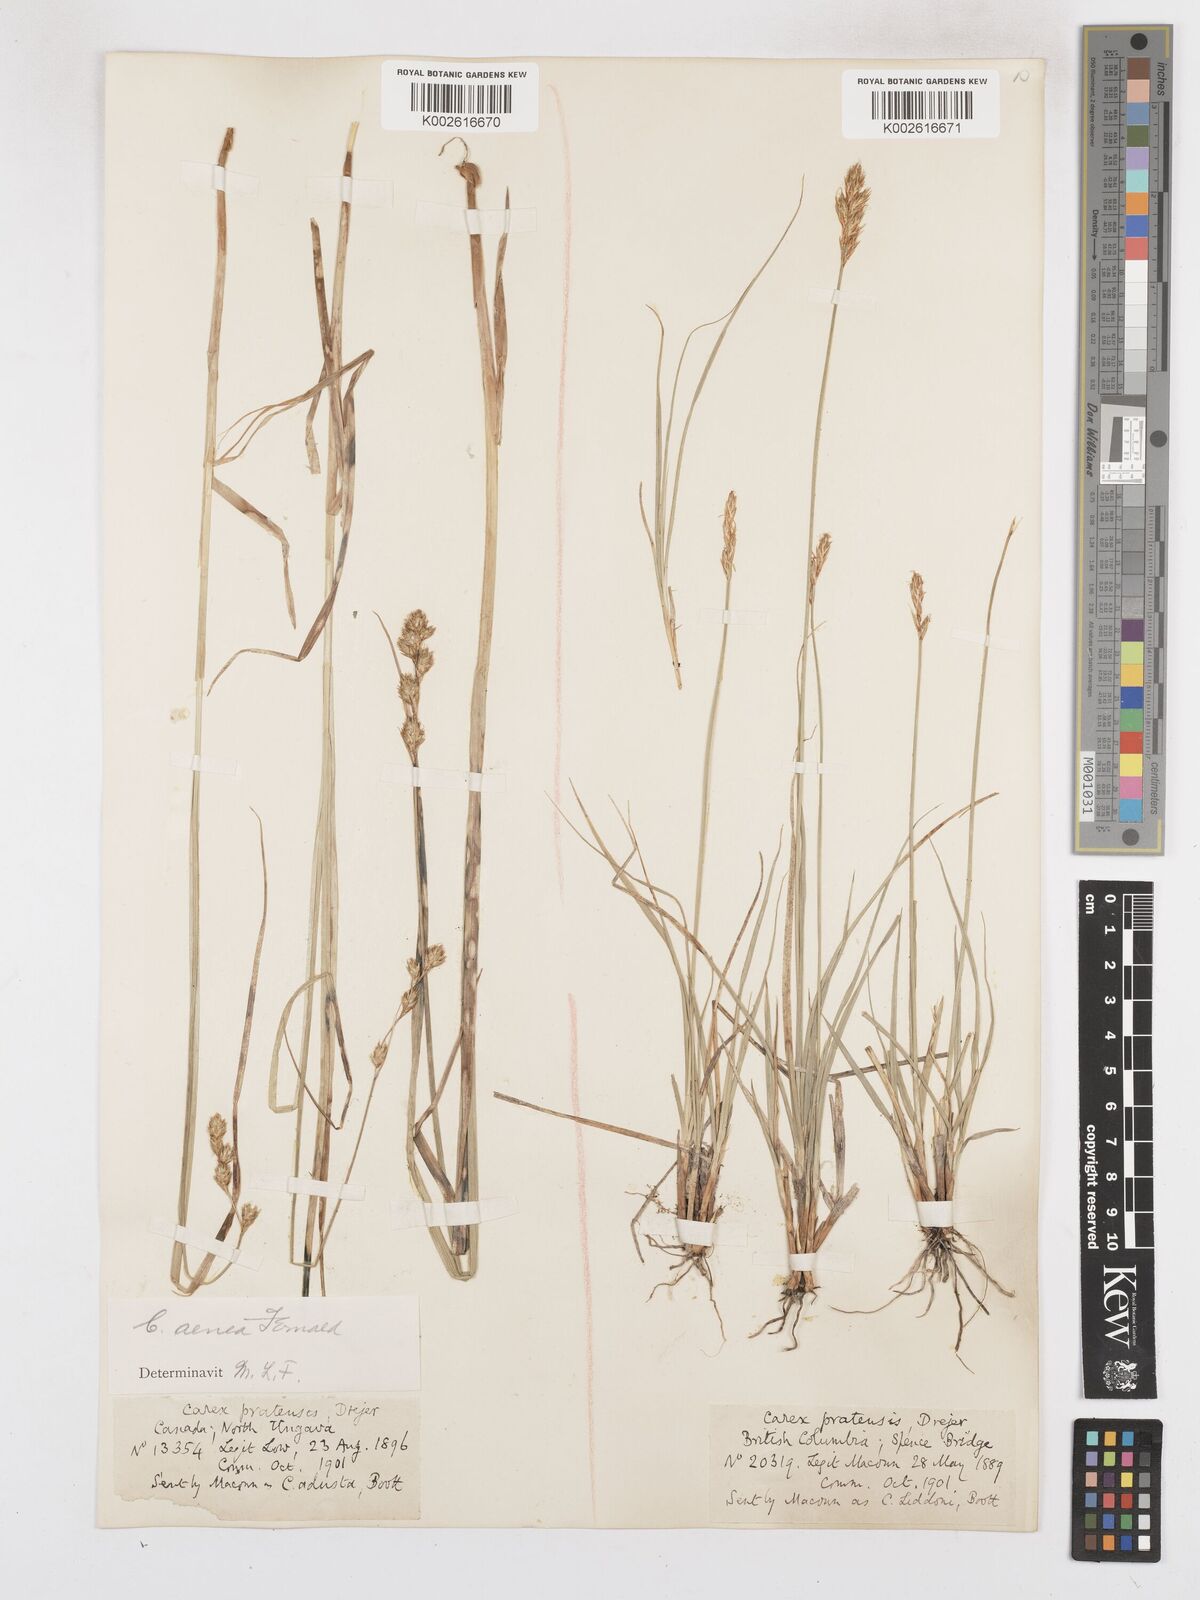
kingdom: Plantae
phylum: Tracheophyta
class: Liliopsida
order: Poales
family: Cyperaceae
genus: Carex
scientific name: Carex foenea
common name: Bronze sedge
